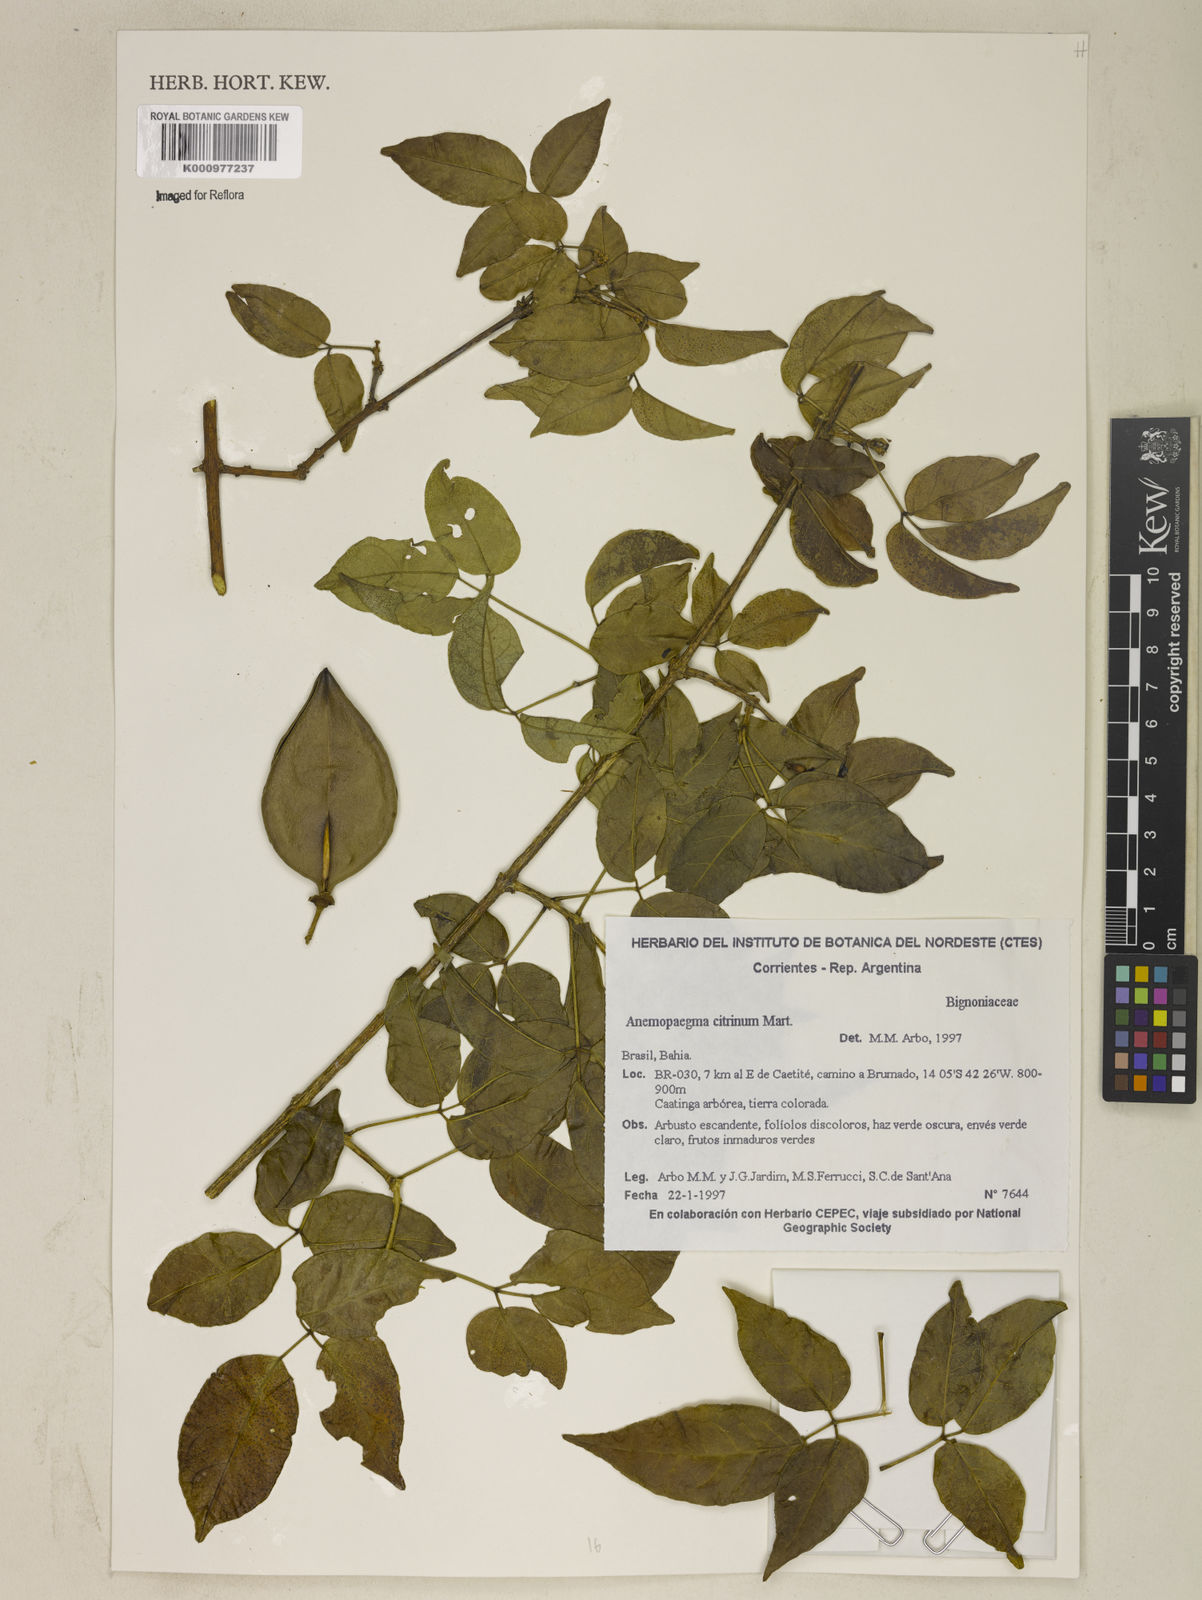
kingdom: Plantae
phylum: Tracheophyta
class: Magnoliopsida
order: Lamiales
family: Bignoniaceae
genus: Anemopaegma
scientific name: Anemopaegma album
